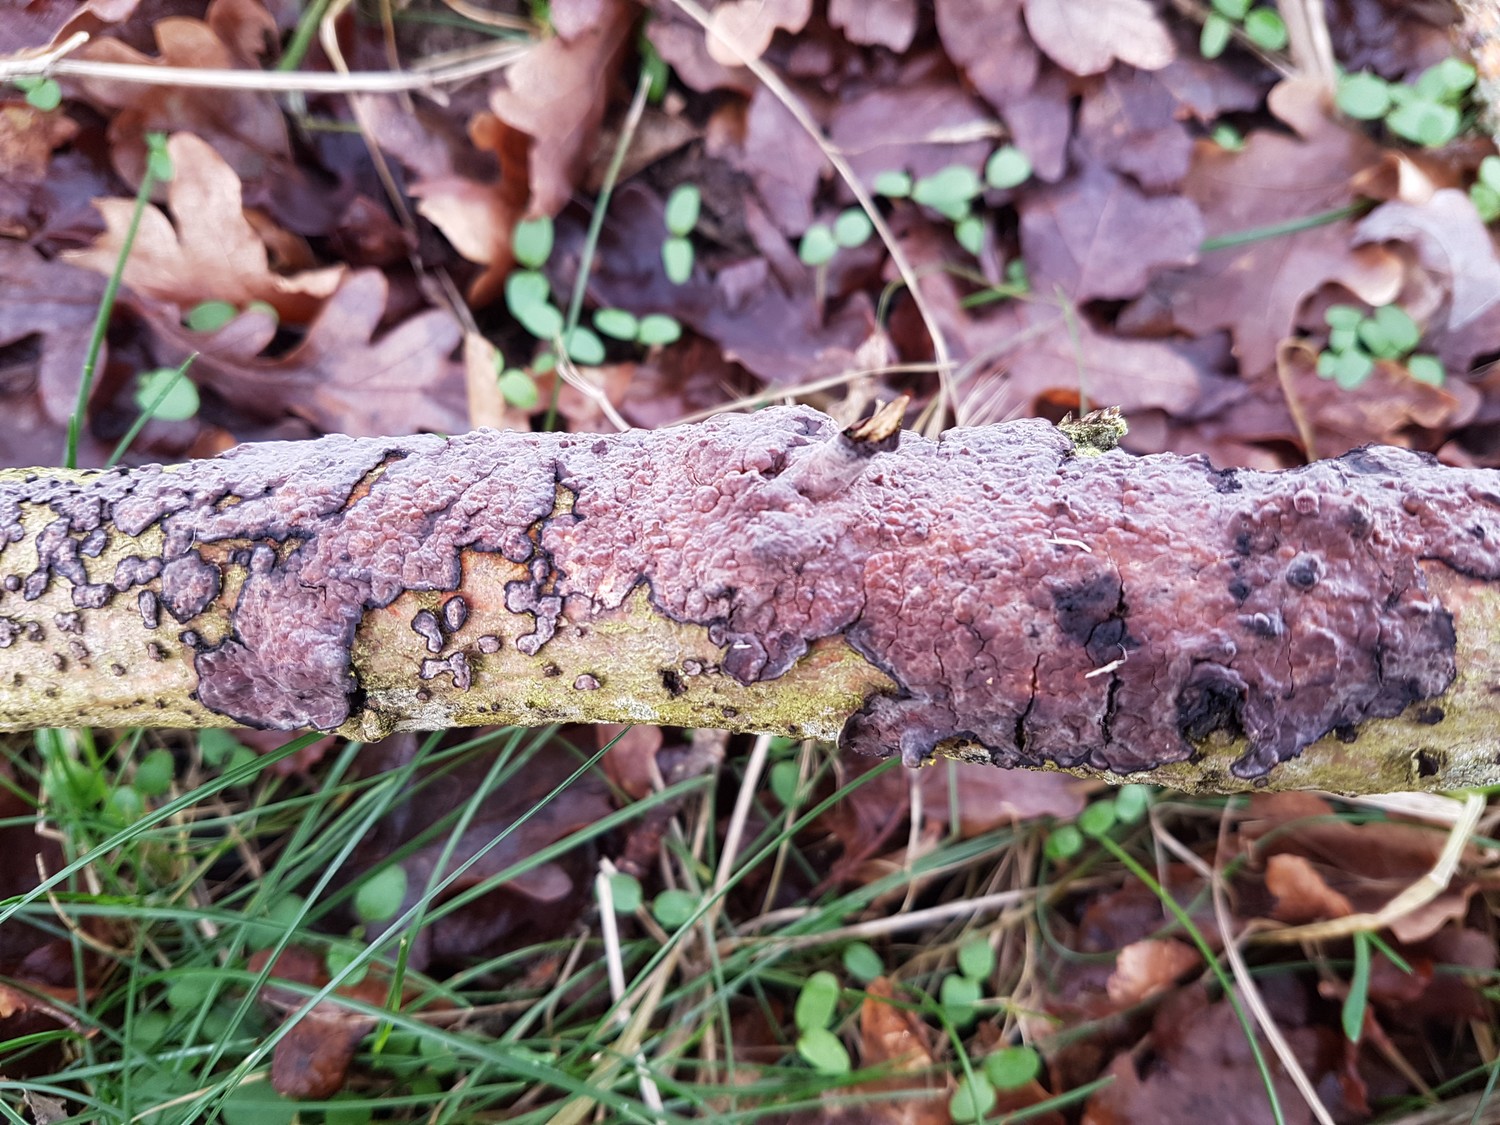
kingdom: Fungi
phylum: Basidiomycota
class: Agaricomycetes
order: Russulales
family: Peniophoraceae
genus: Peniophora
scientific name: Peniophora quercina
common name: ege-voksskind
